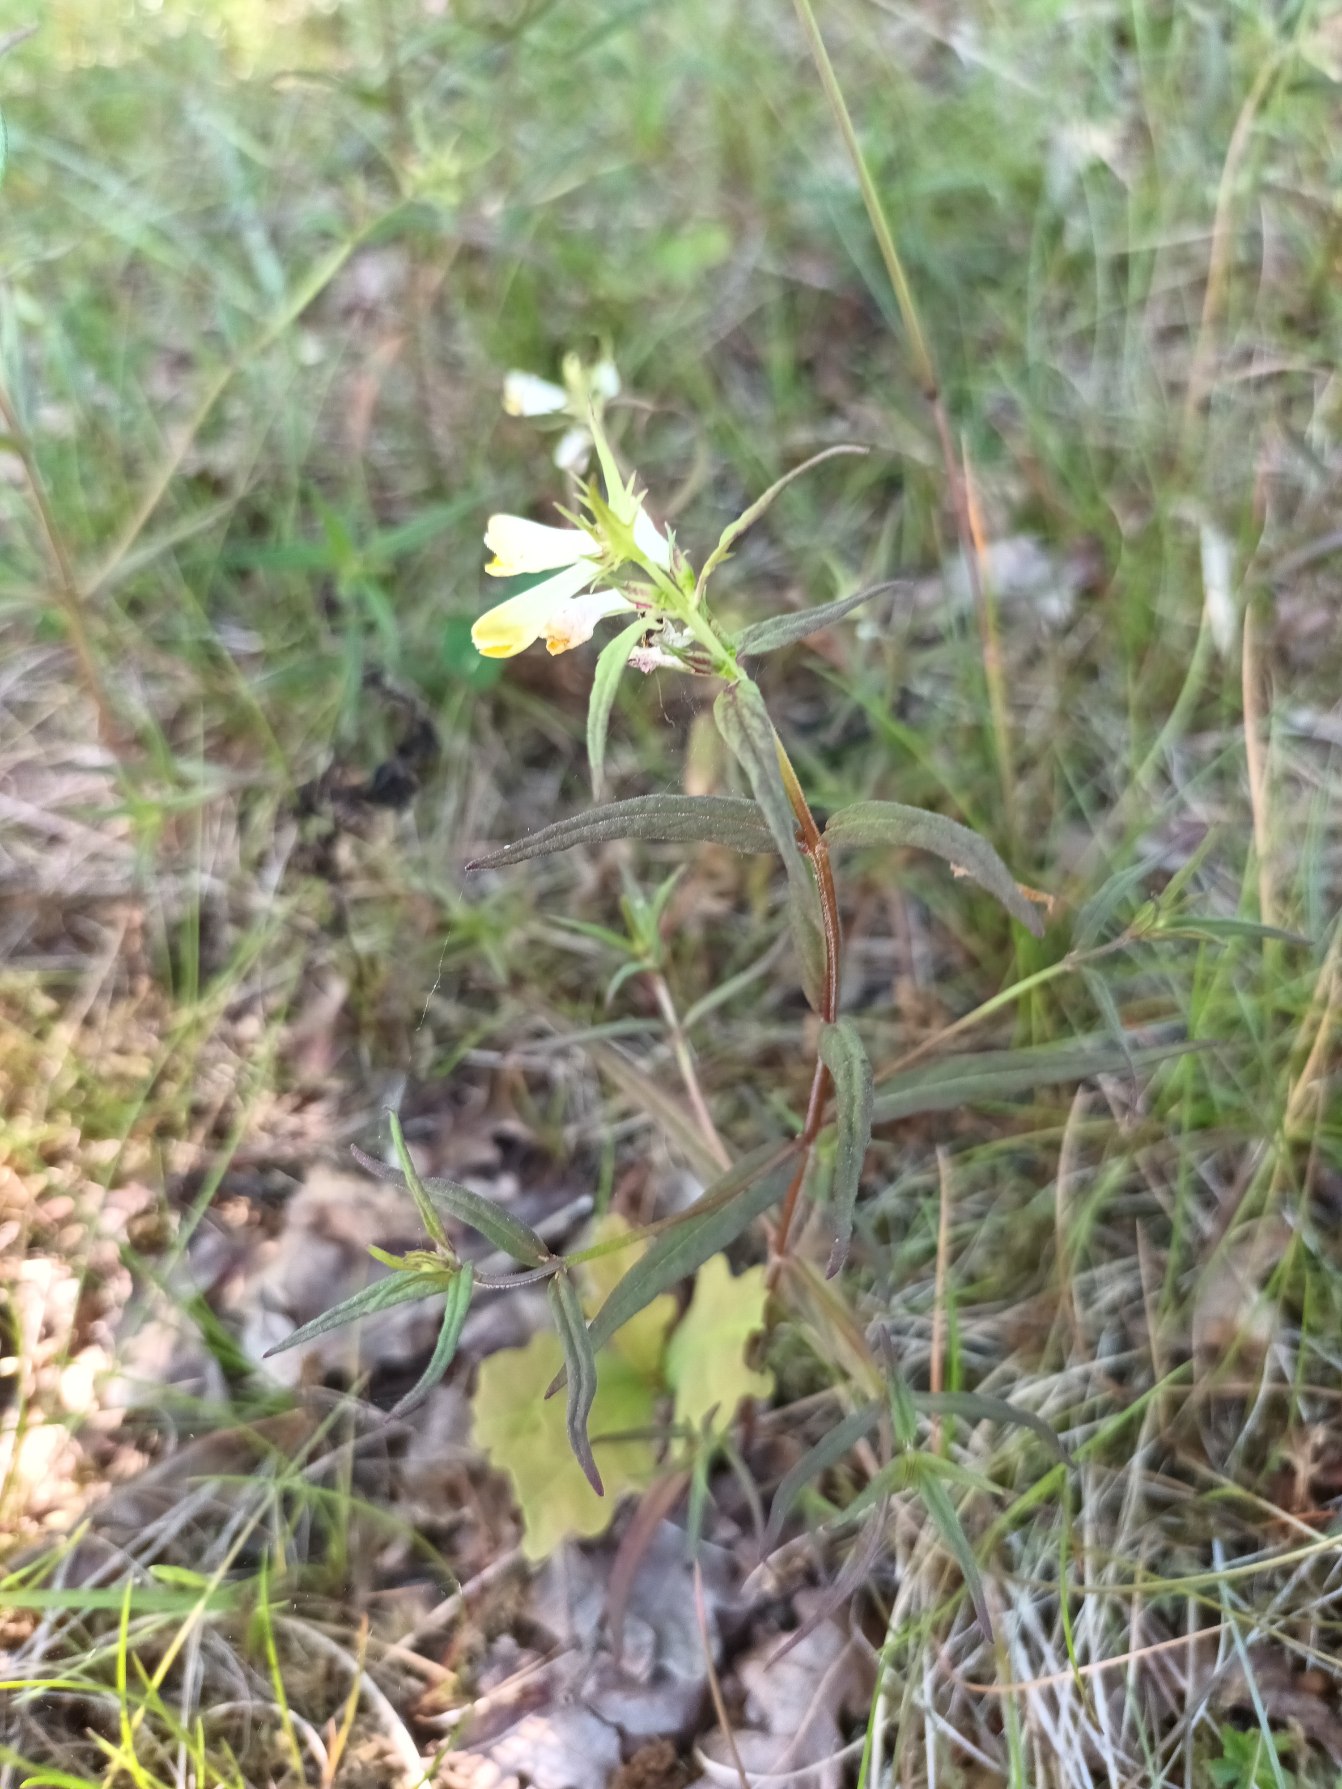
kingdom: Plantae
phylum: Tracheophyta
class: Magnoliopsida
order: Lamiales
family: Orobanchaceae
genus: Melampyrum
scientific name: Melampyrum pratense
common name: Almindelig kohvede
